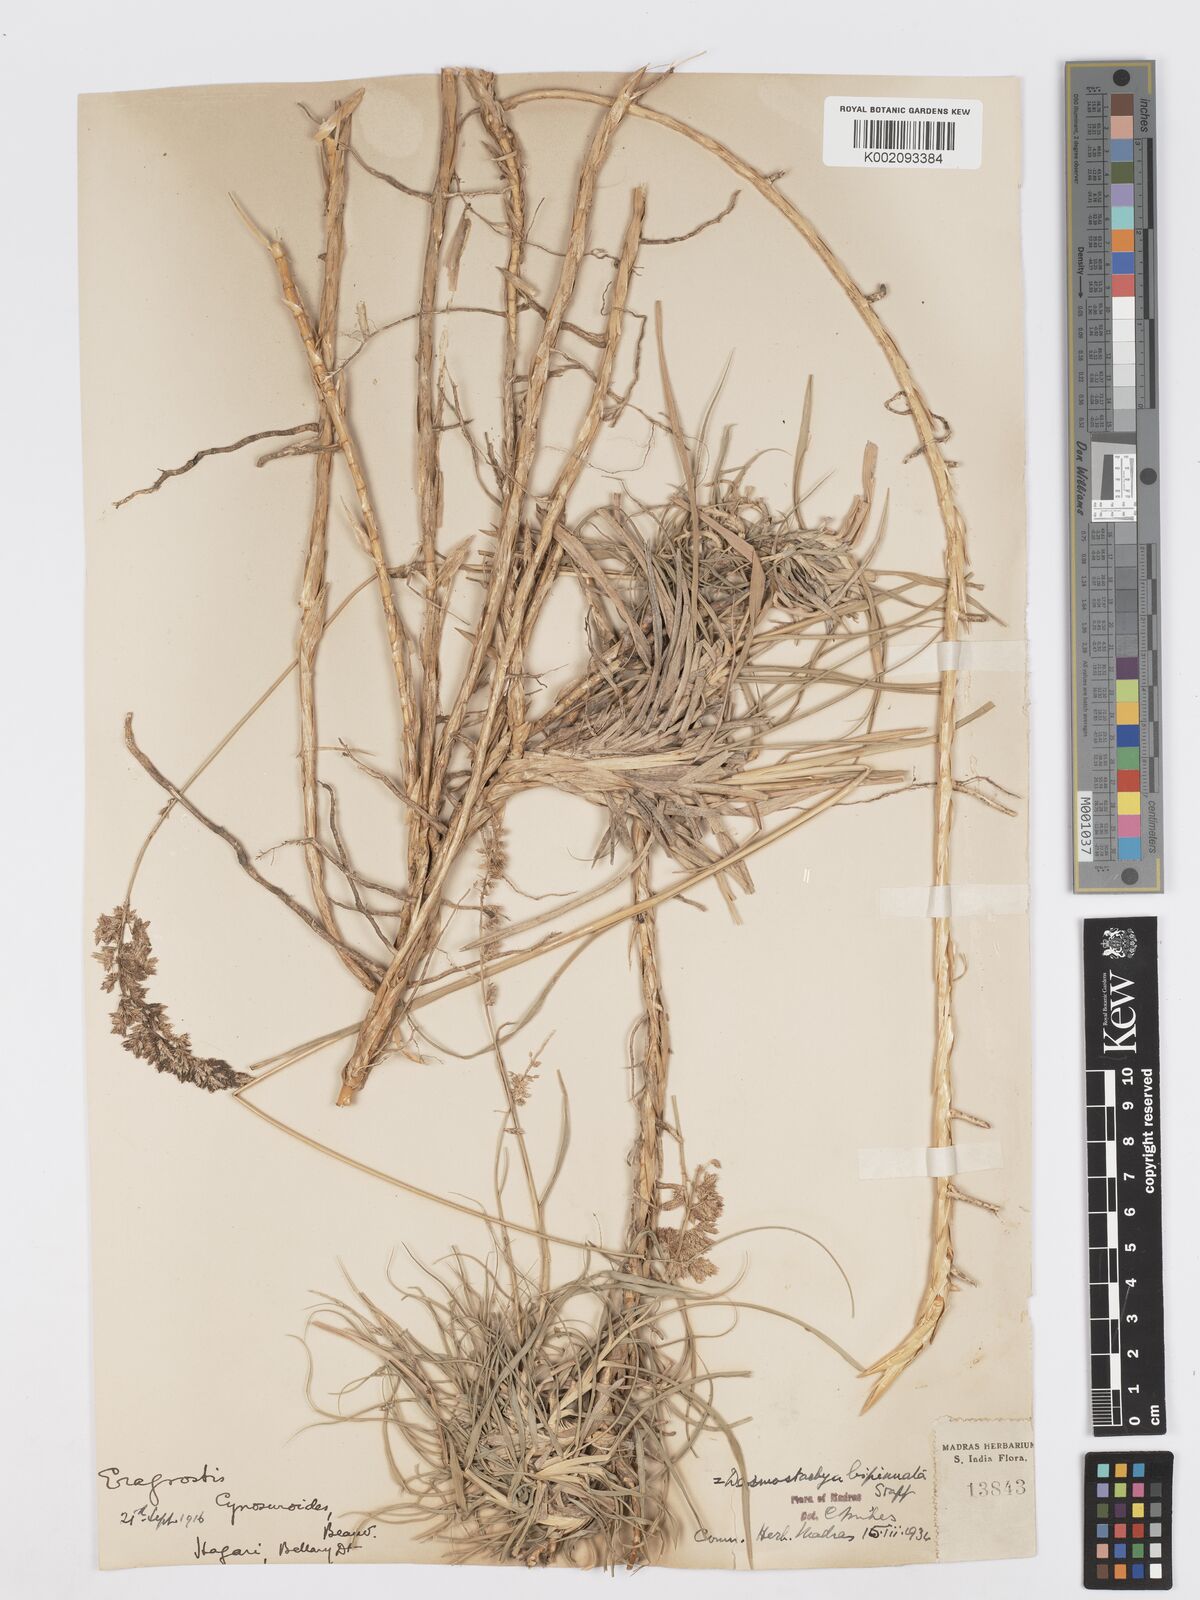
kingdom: Plantae
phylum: Tracheophyta
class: Liliopsida
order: Poales
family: Poaceae
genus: Desmostachya
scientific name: Desmostachya bipinnata
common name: Crowfoot grass
